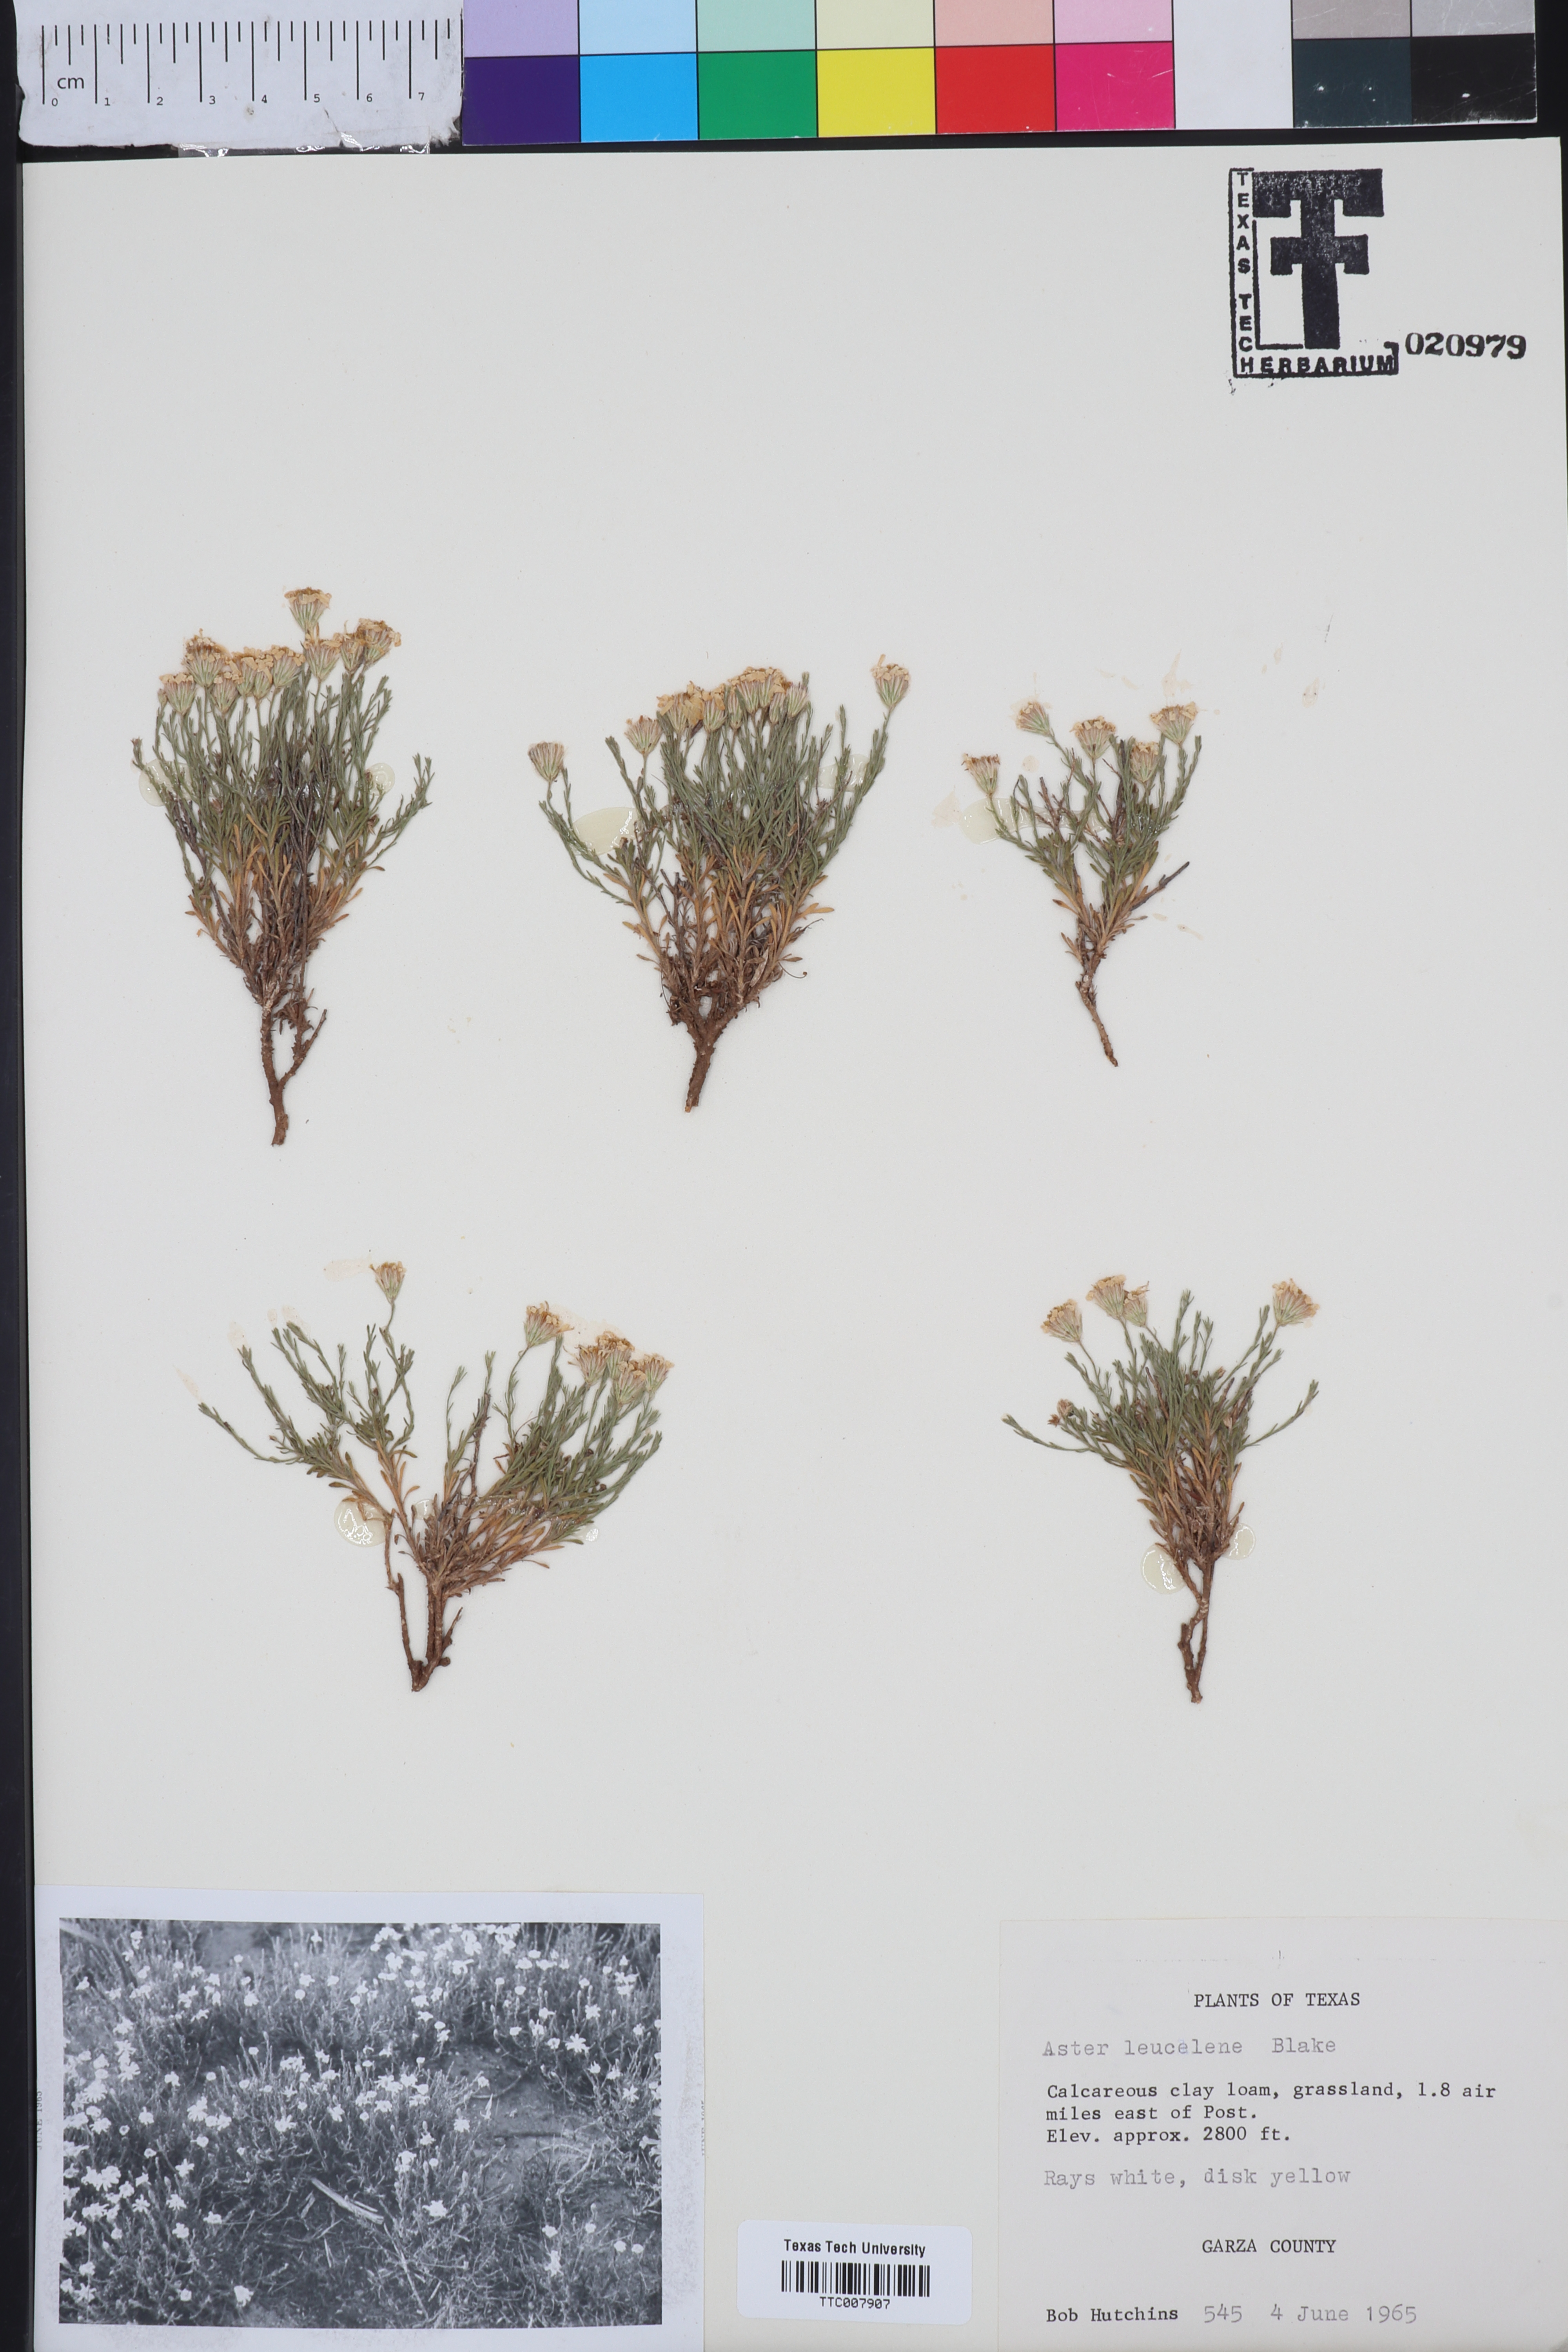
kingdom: Plantae
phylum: Tracheophyta
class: Magnoliopsida
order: Asterales
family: Asteraceae
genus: Chaetopappa
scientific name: Chaetopappa ericoides
